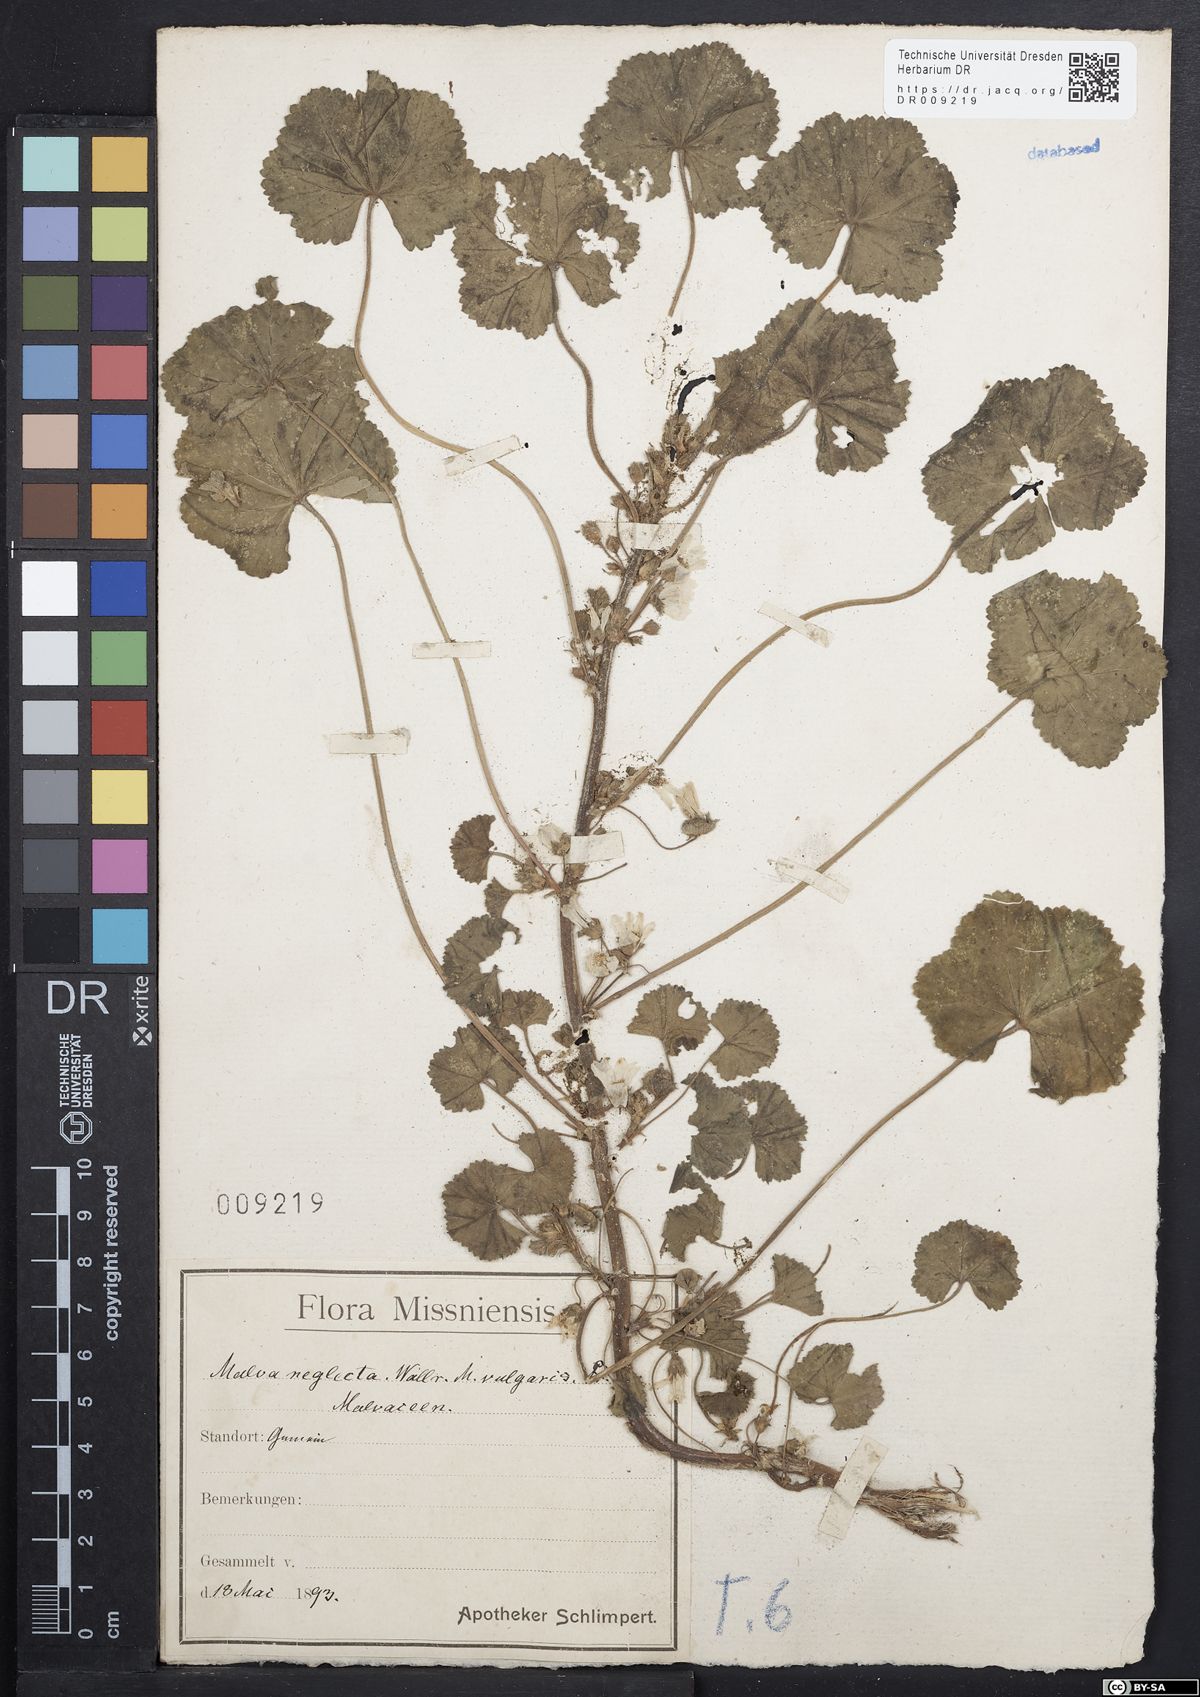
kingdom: Plantae
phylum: Tracheophyta
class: Magnoliopsida
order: Malvales
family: Malvaceae
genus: Malva
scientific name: Malva neglecta
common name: Common mallow
